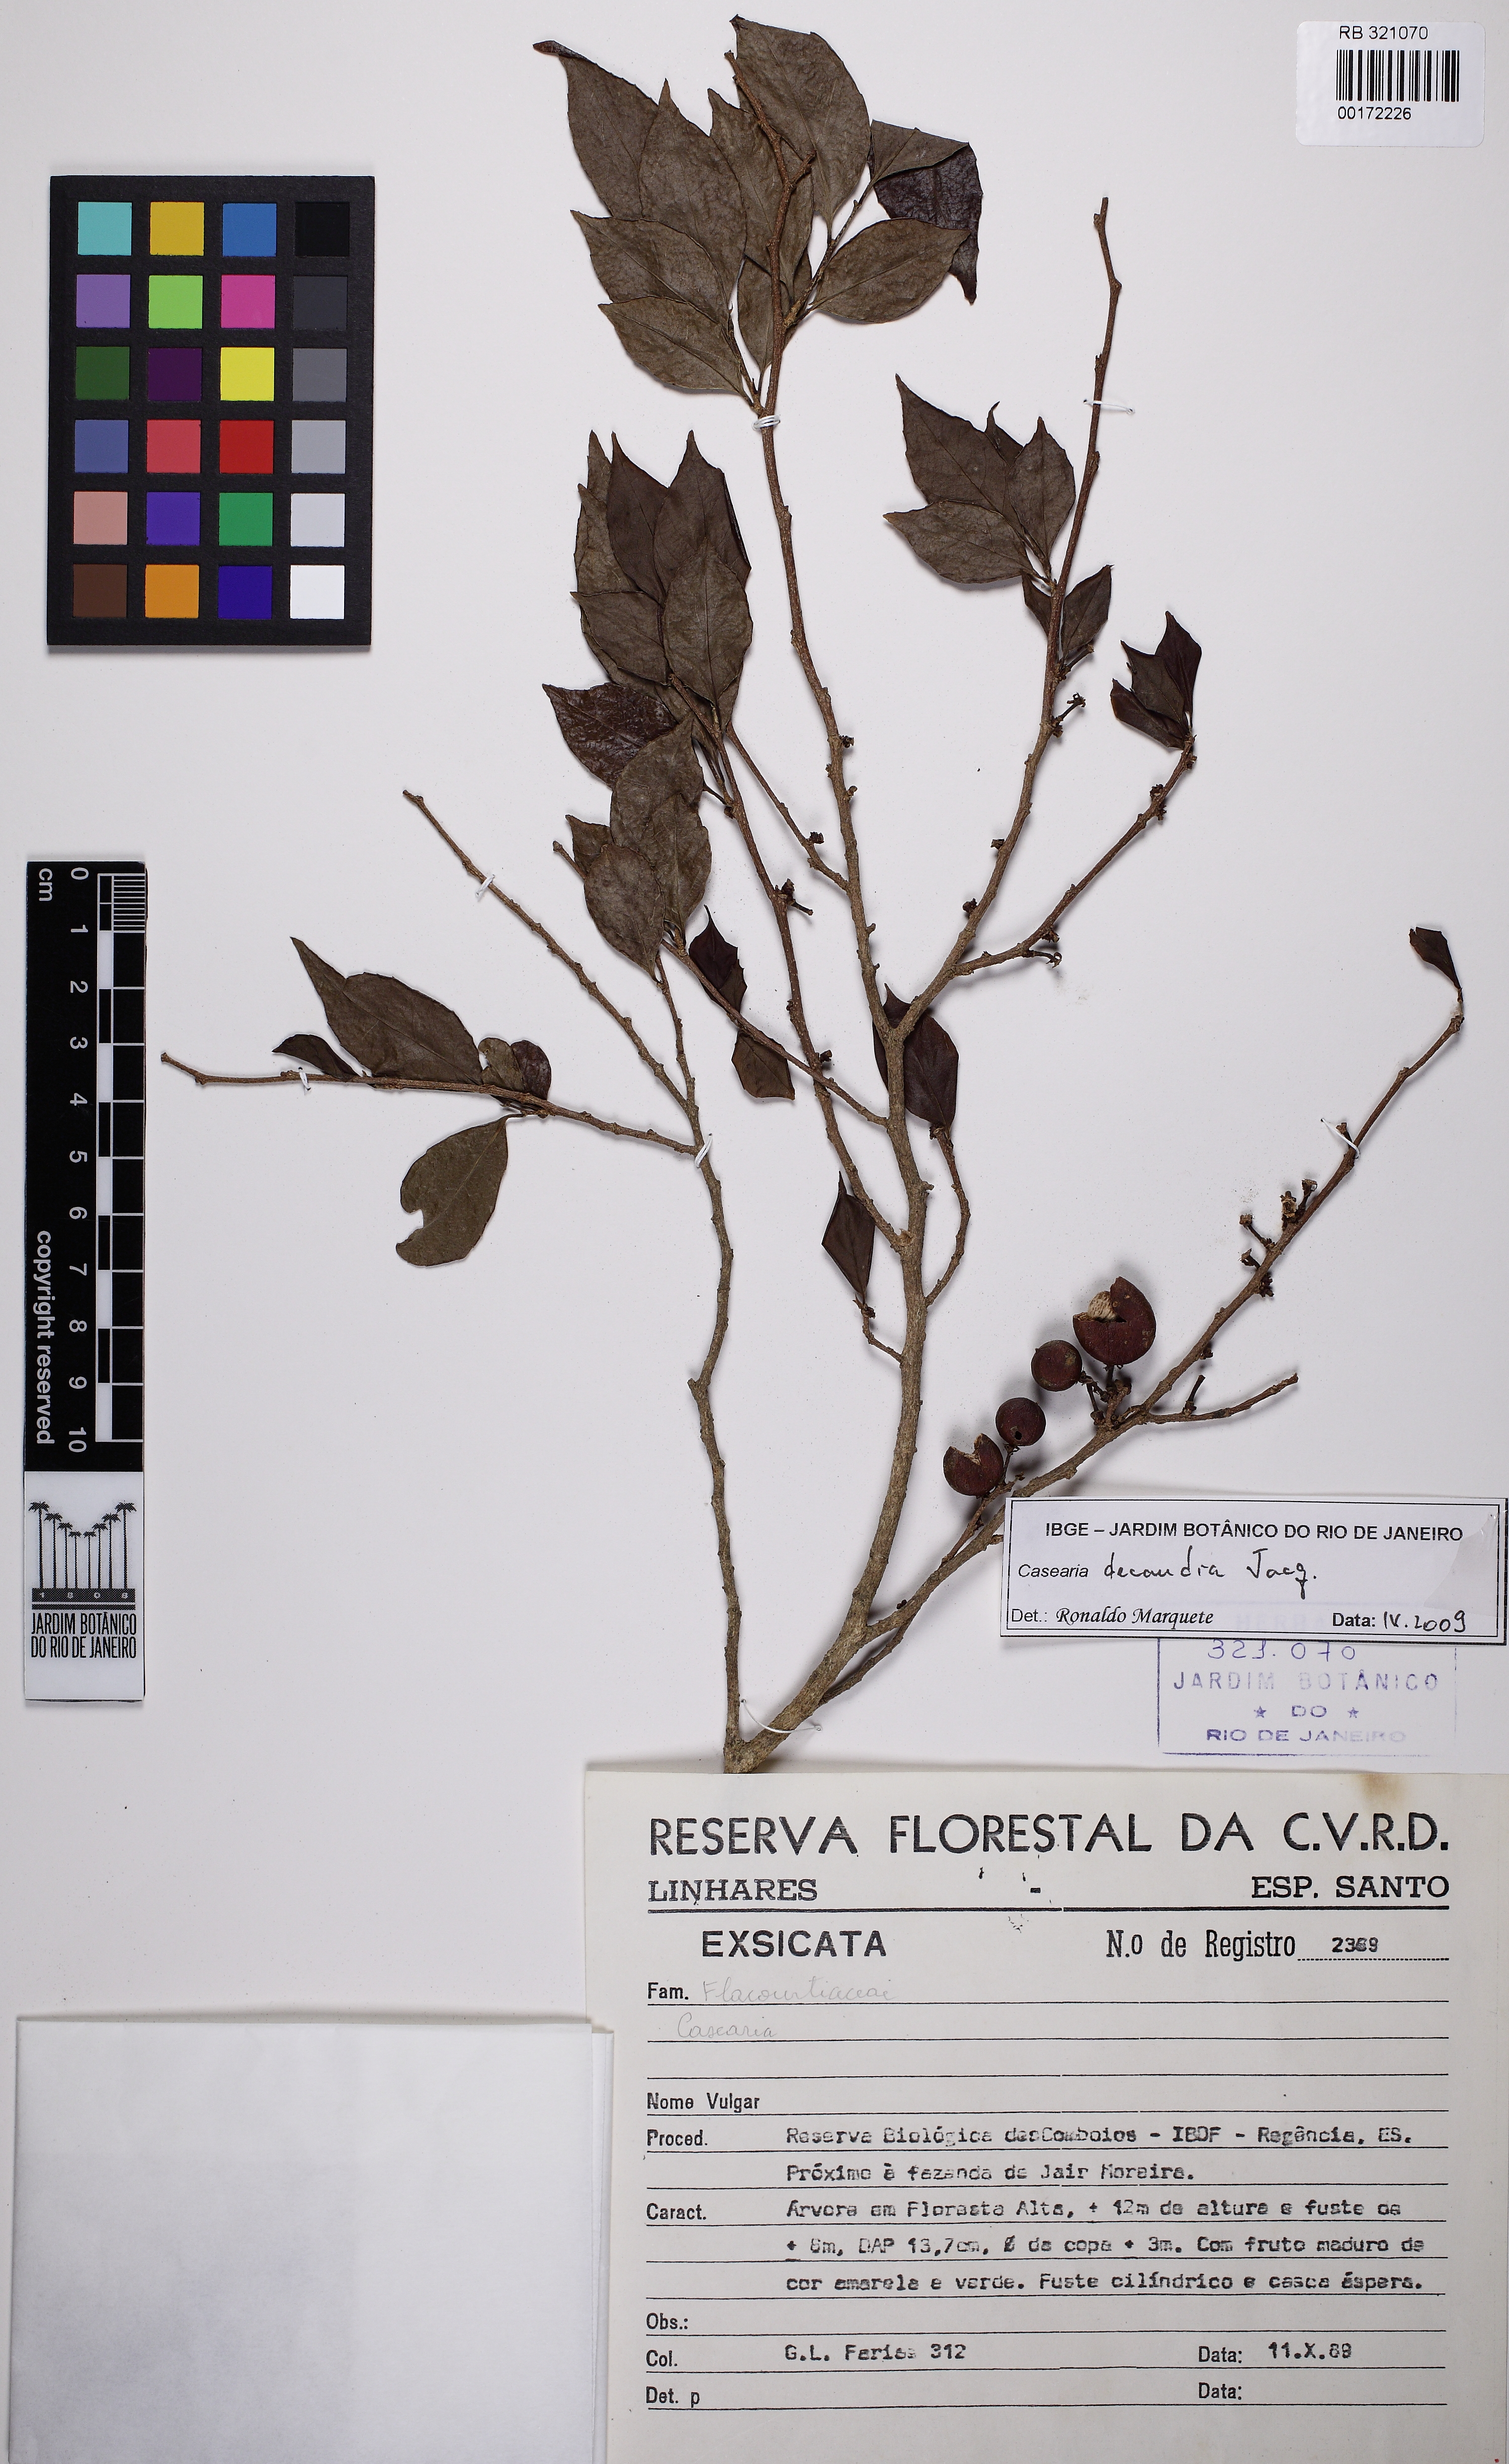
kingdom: Plantae
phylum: Tracheophyta
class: Magnoliopsida
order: Malpighiales
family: Salicaceae
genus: Casearia
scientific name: Casearia decandra
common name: Crack open
